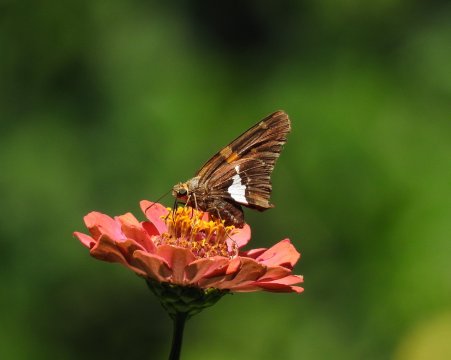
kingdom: Animalia
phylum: Arthropoda
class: Insecta
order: Lepidoptera
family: Hesperiidae
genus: Epargyreus
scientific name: Epargyreus clarus
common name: Silver-spotted Skipper
